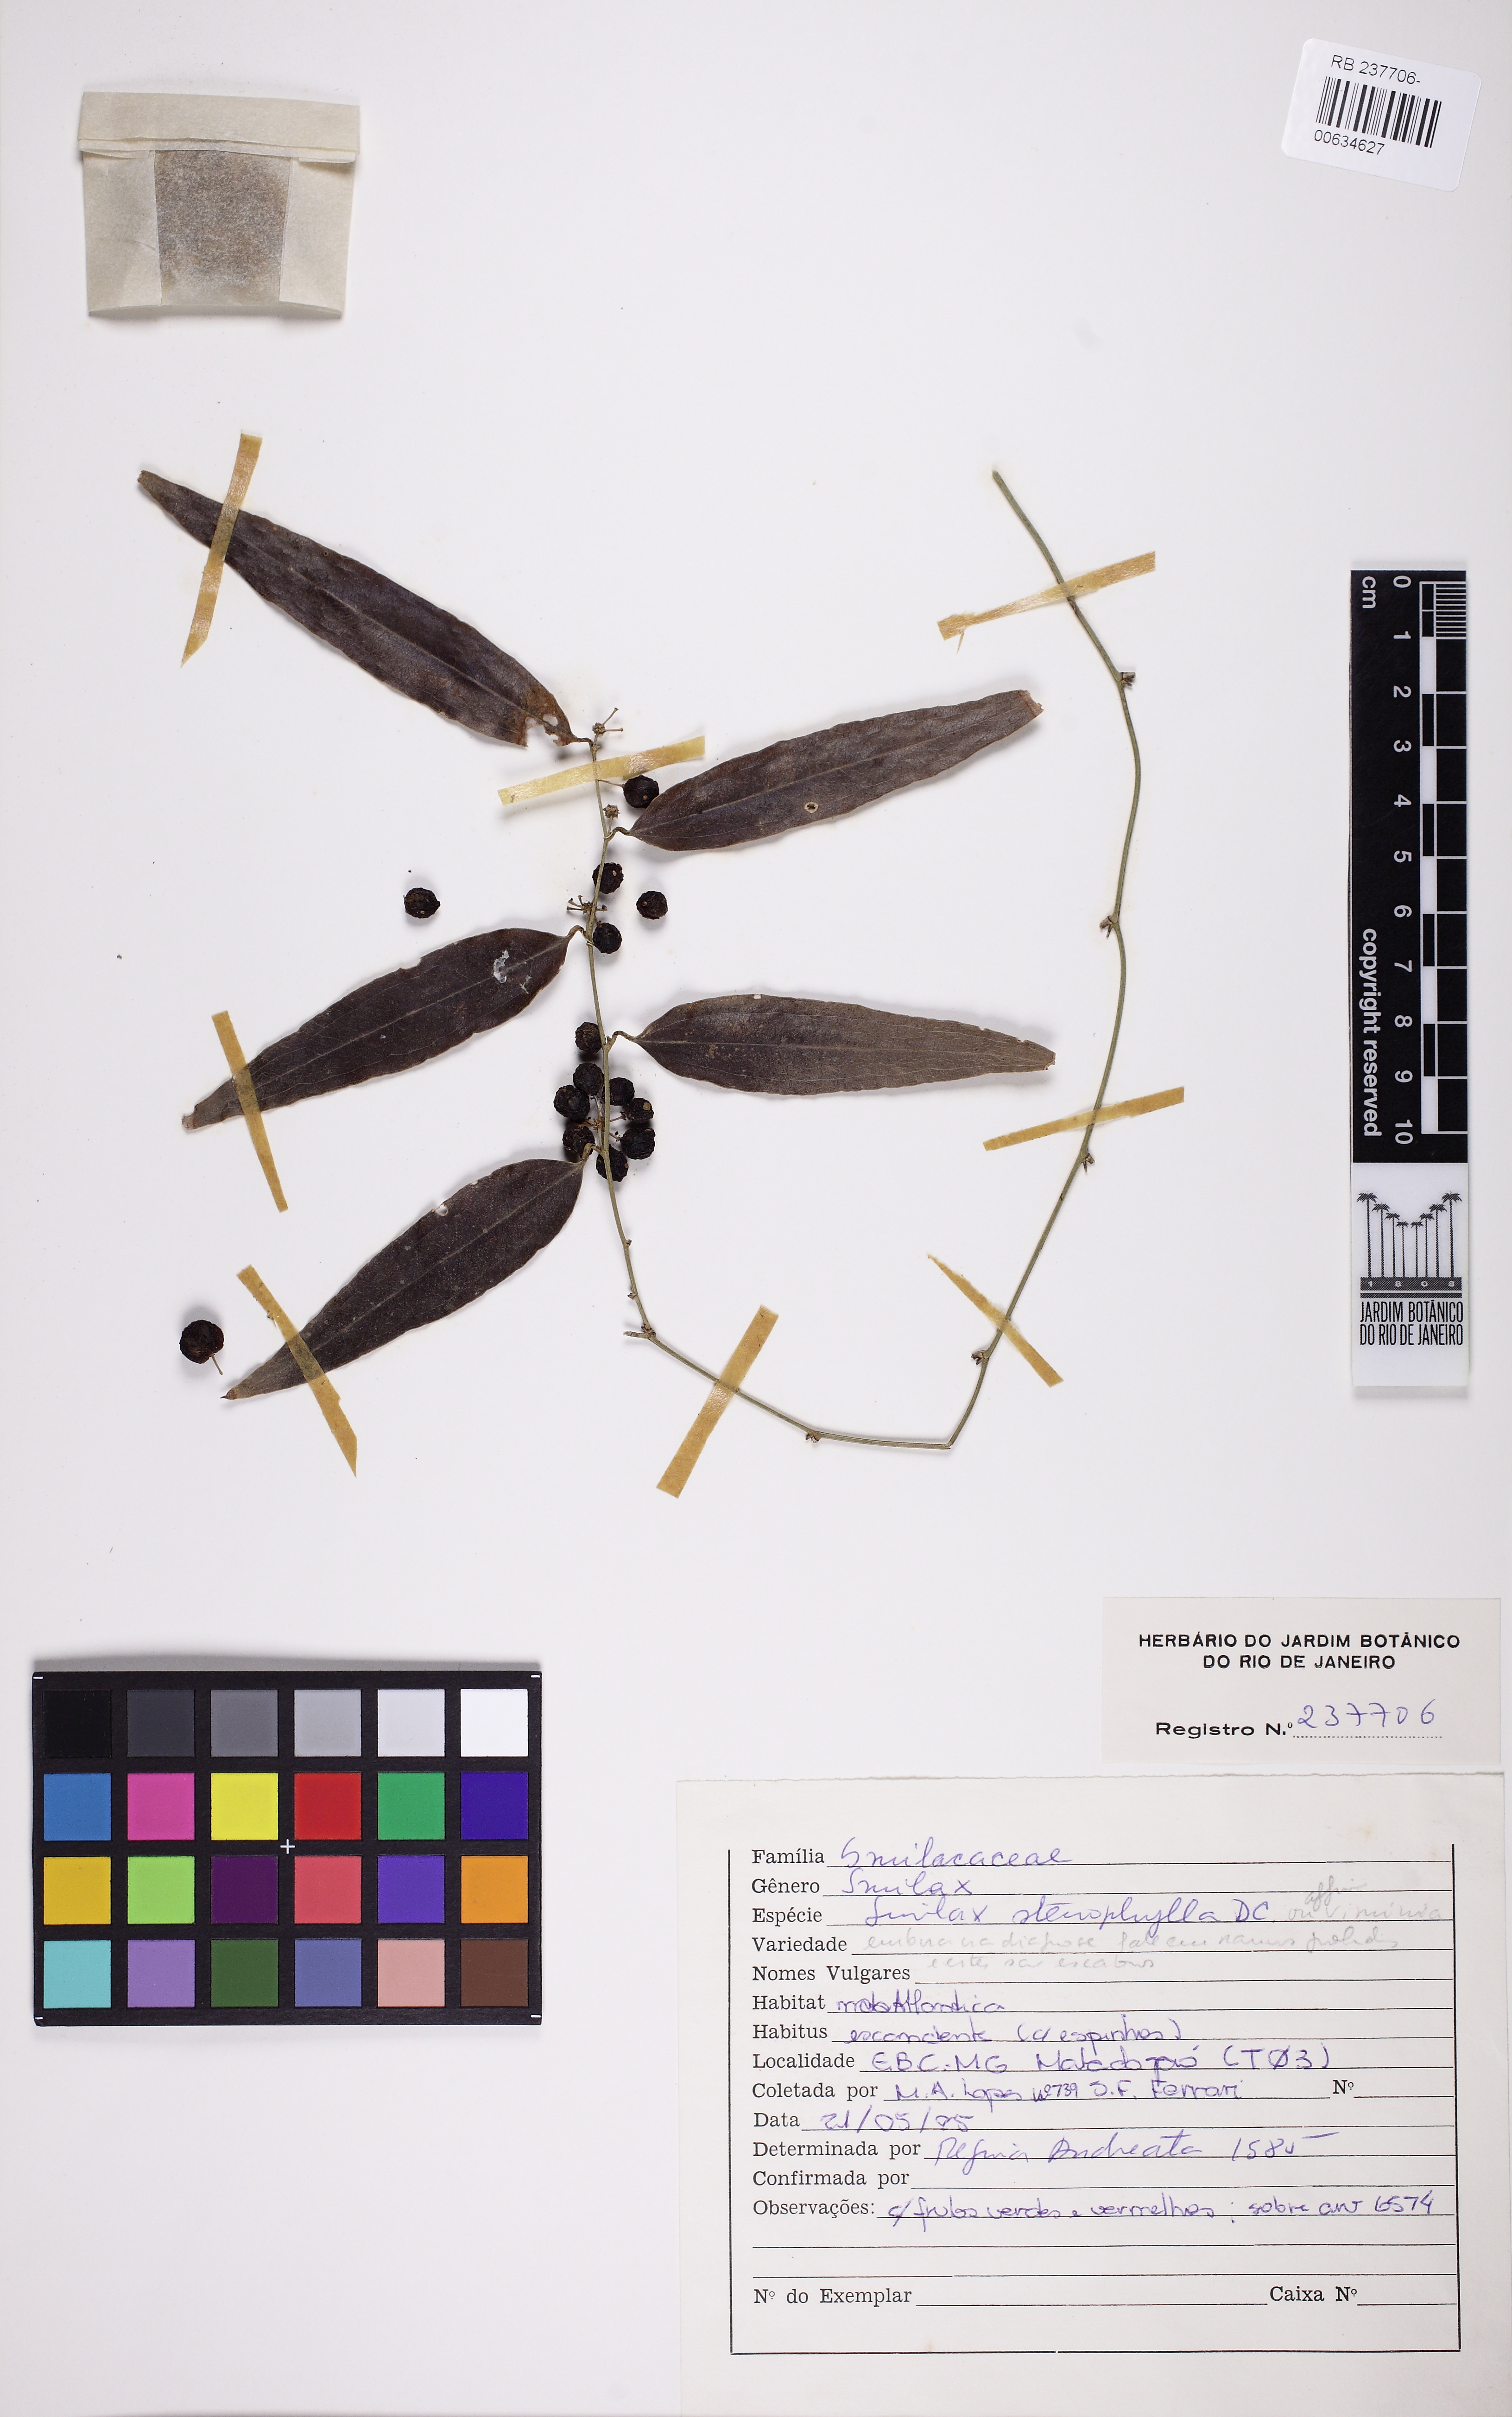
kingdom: Plantae
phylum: Tracheophyta
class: Liliopsida
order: Liliales
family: Smilacaceae
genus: Smilax
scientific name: Smilax stenophylla
